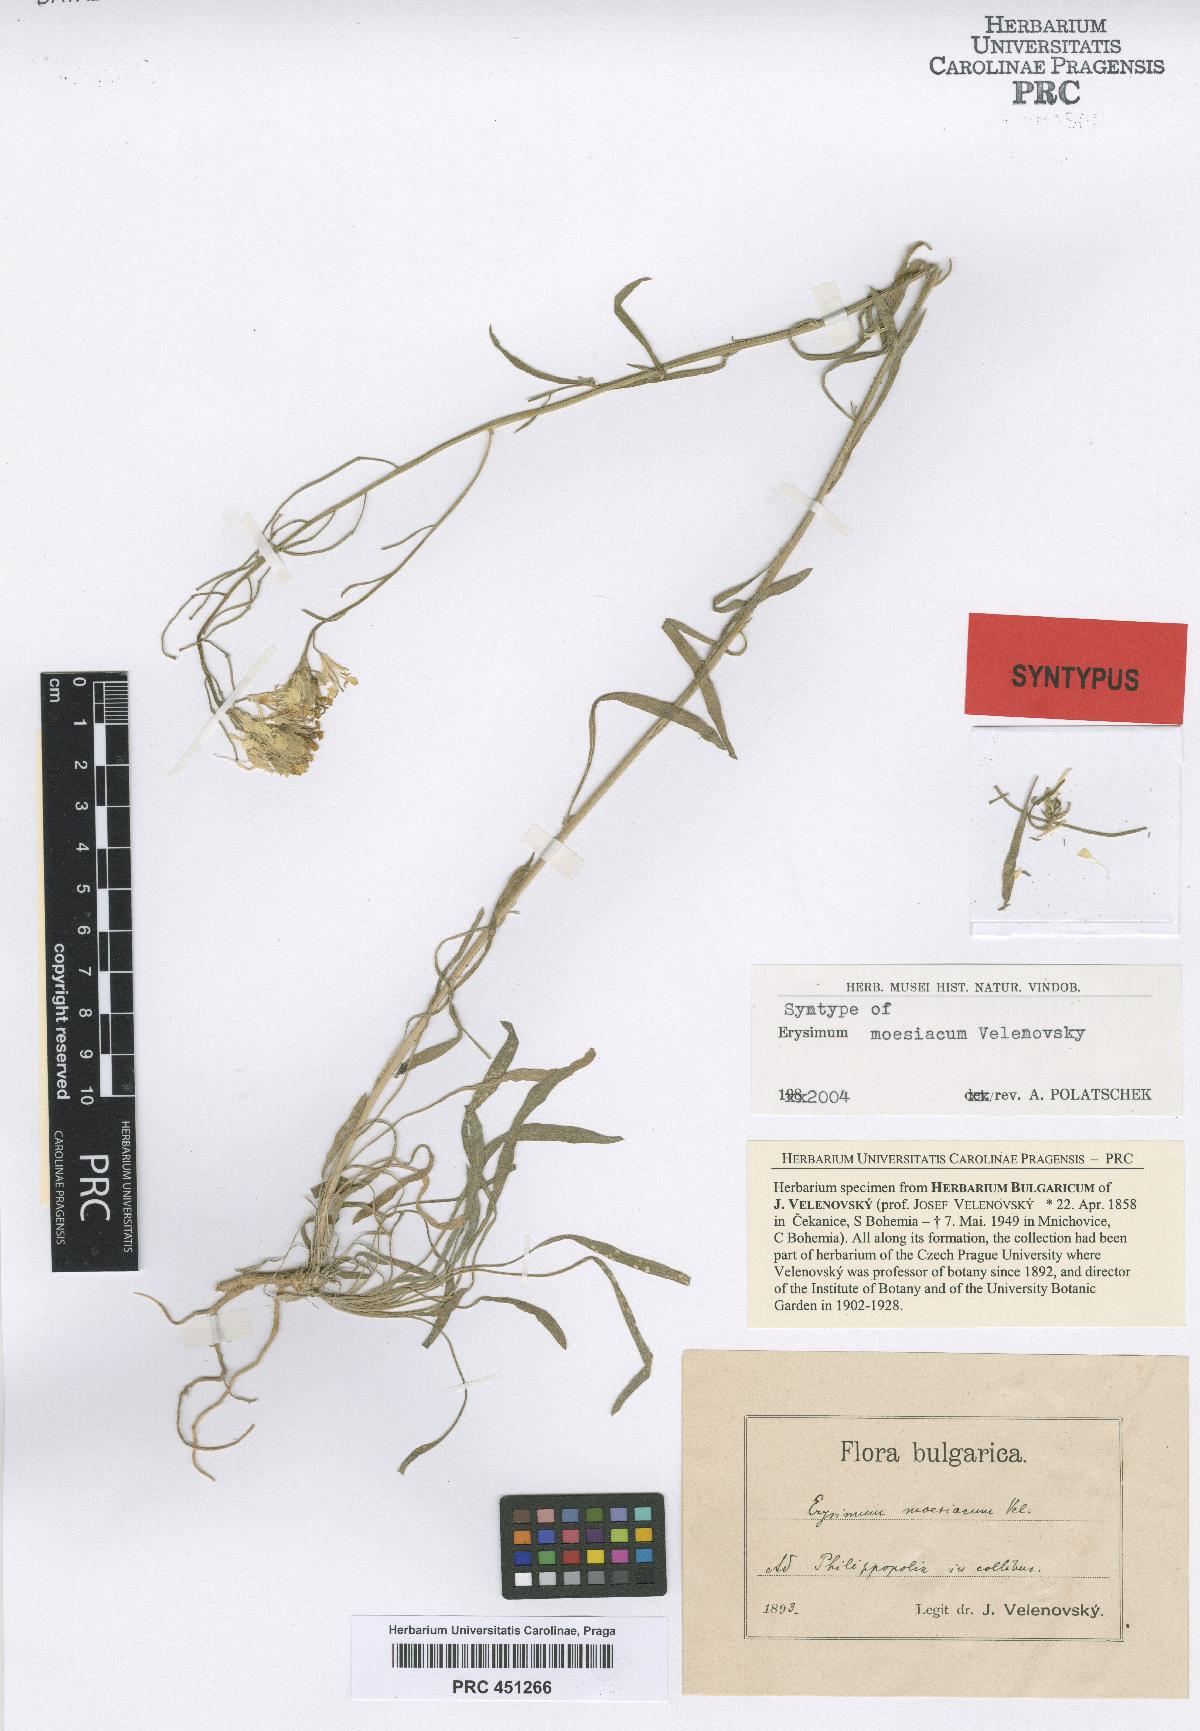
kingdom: Plantae
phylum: Tracheophyta
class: Magnoliopsida
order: Brassicales
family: Brassicaceae
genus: Erysimum
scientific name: Erysimum moesiacum
